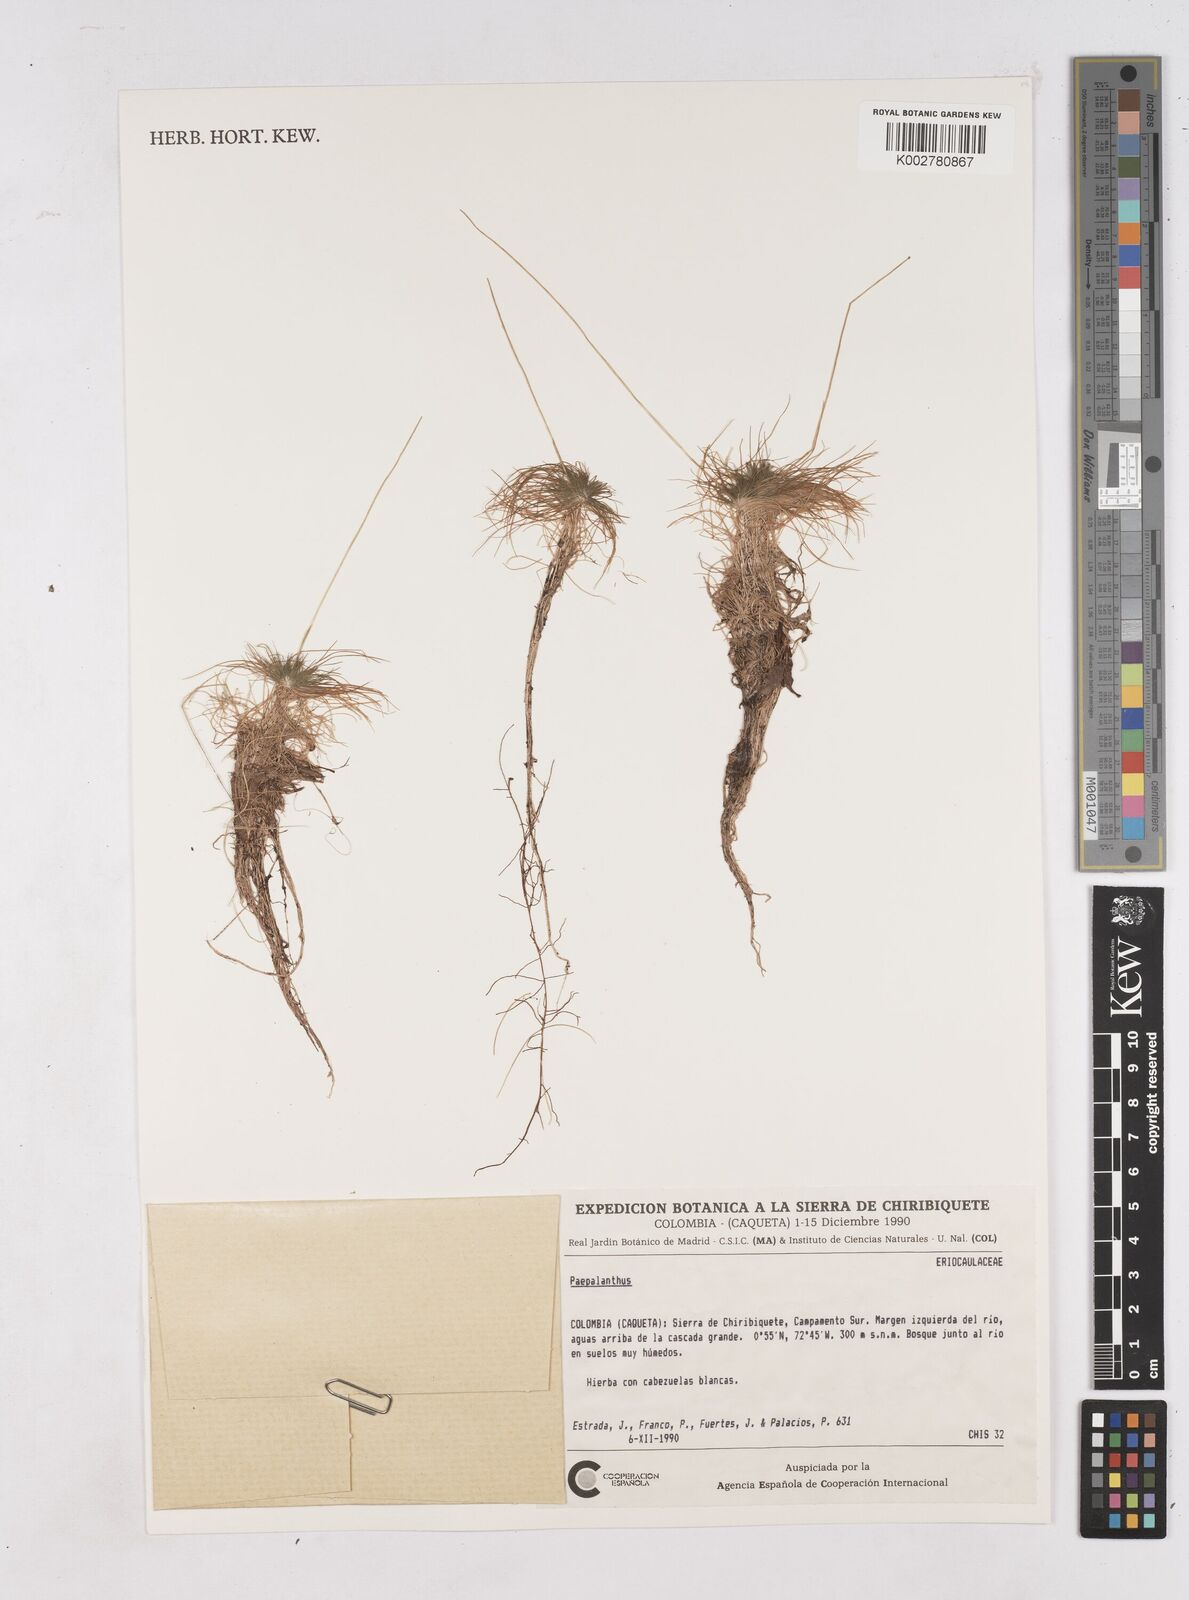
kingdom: Plantae
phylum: Tracheophyta
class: Liliopsida
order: Poales
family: Eriocaulaceae
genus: Paepalanthus
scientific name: Paepalanthus
